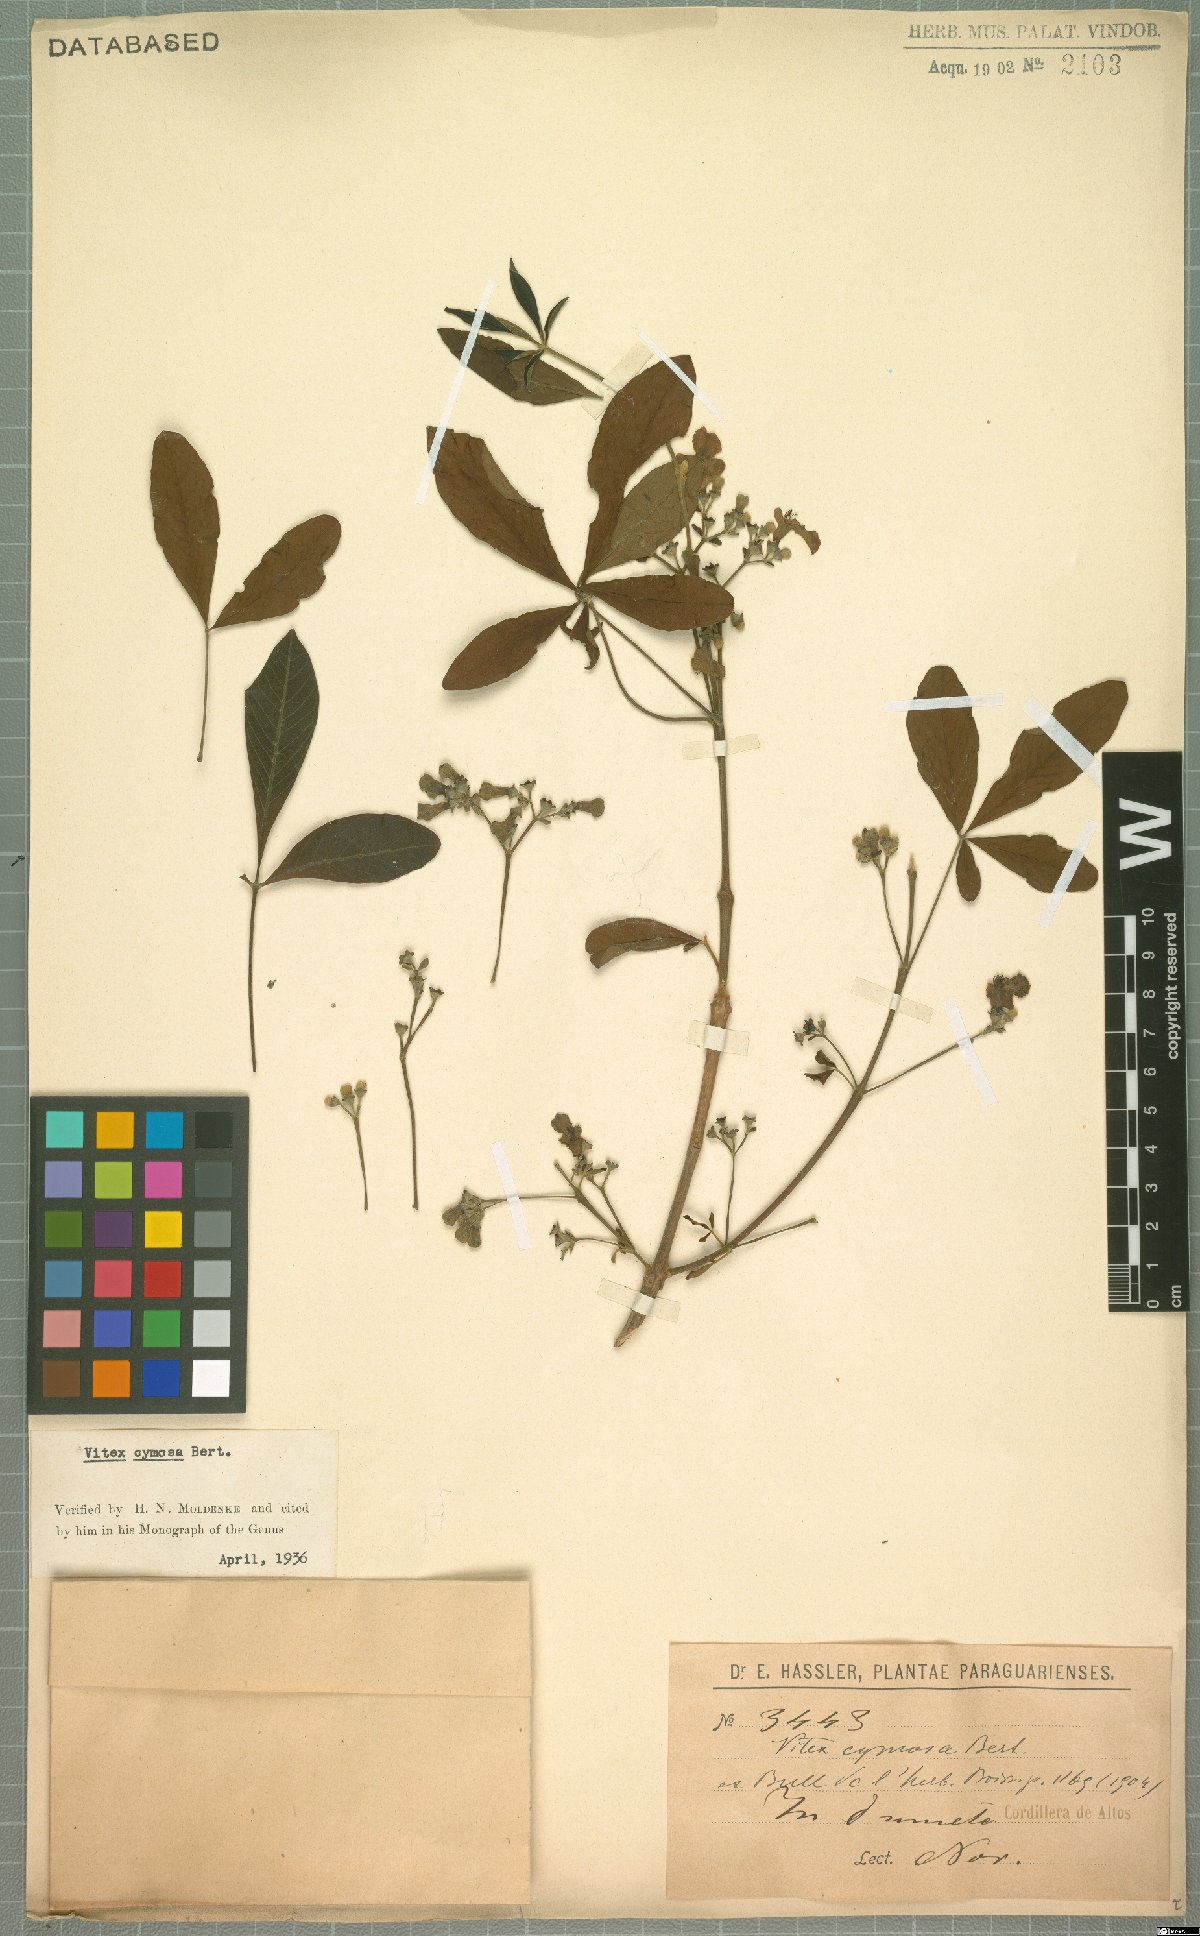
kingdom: Plantae
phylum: Tracheophyta
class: Magnoliopsida
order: Lamiales
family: Lamiaceae
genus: Vitex
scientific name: Vitex cymosa
